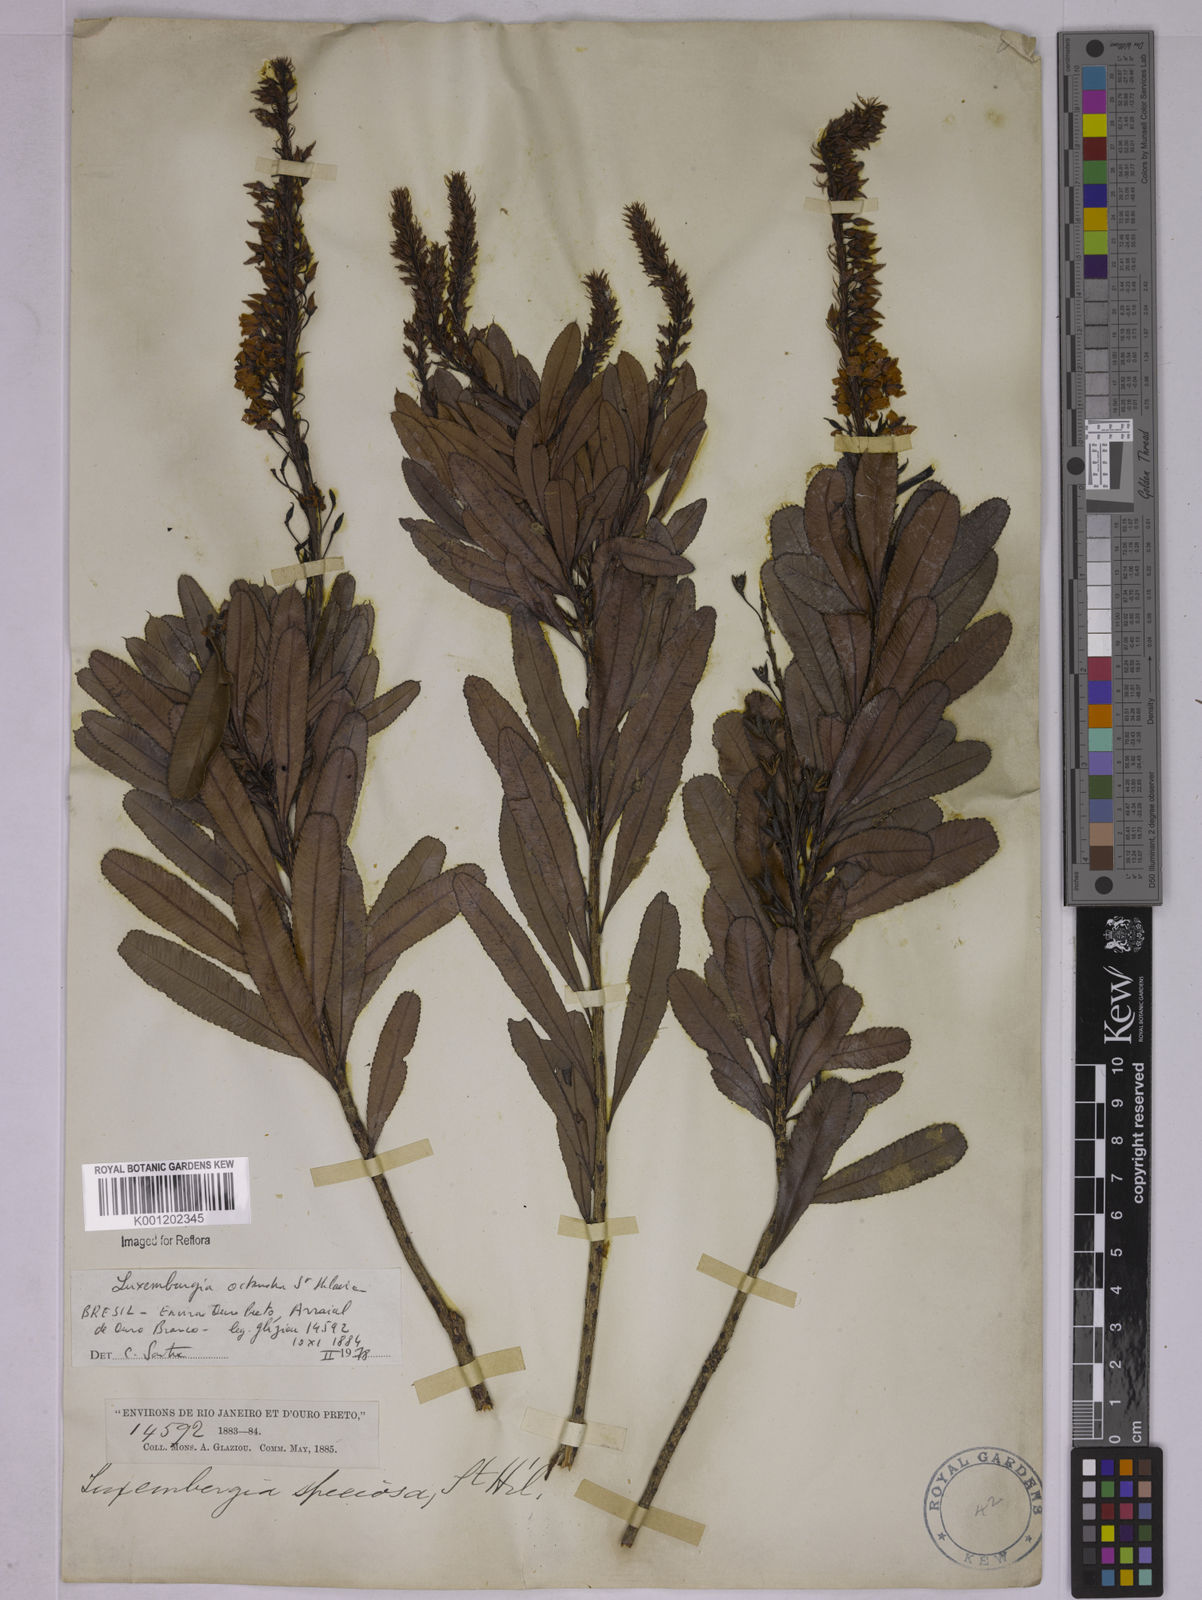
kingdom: Plantae
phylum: Tracheophyta
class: Magnoliopsida
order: Malpighiales
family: Ochnaceae
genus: Luxemburgia
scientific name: Luxemburgia octandra
